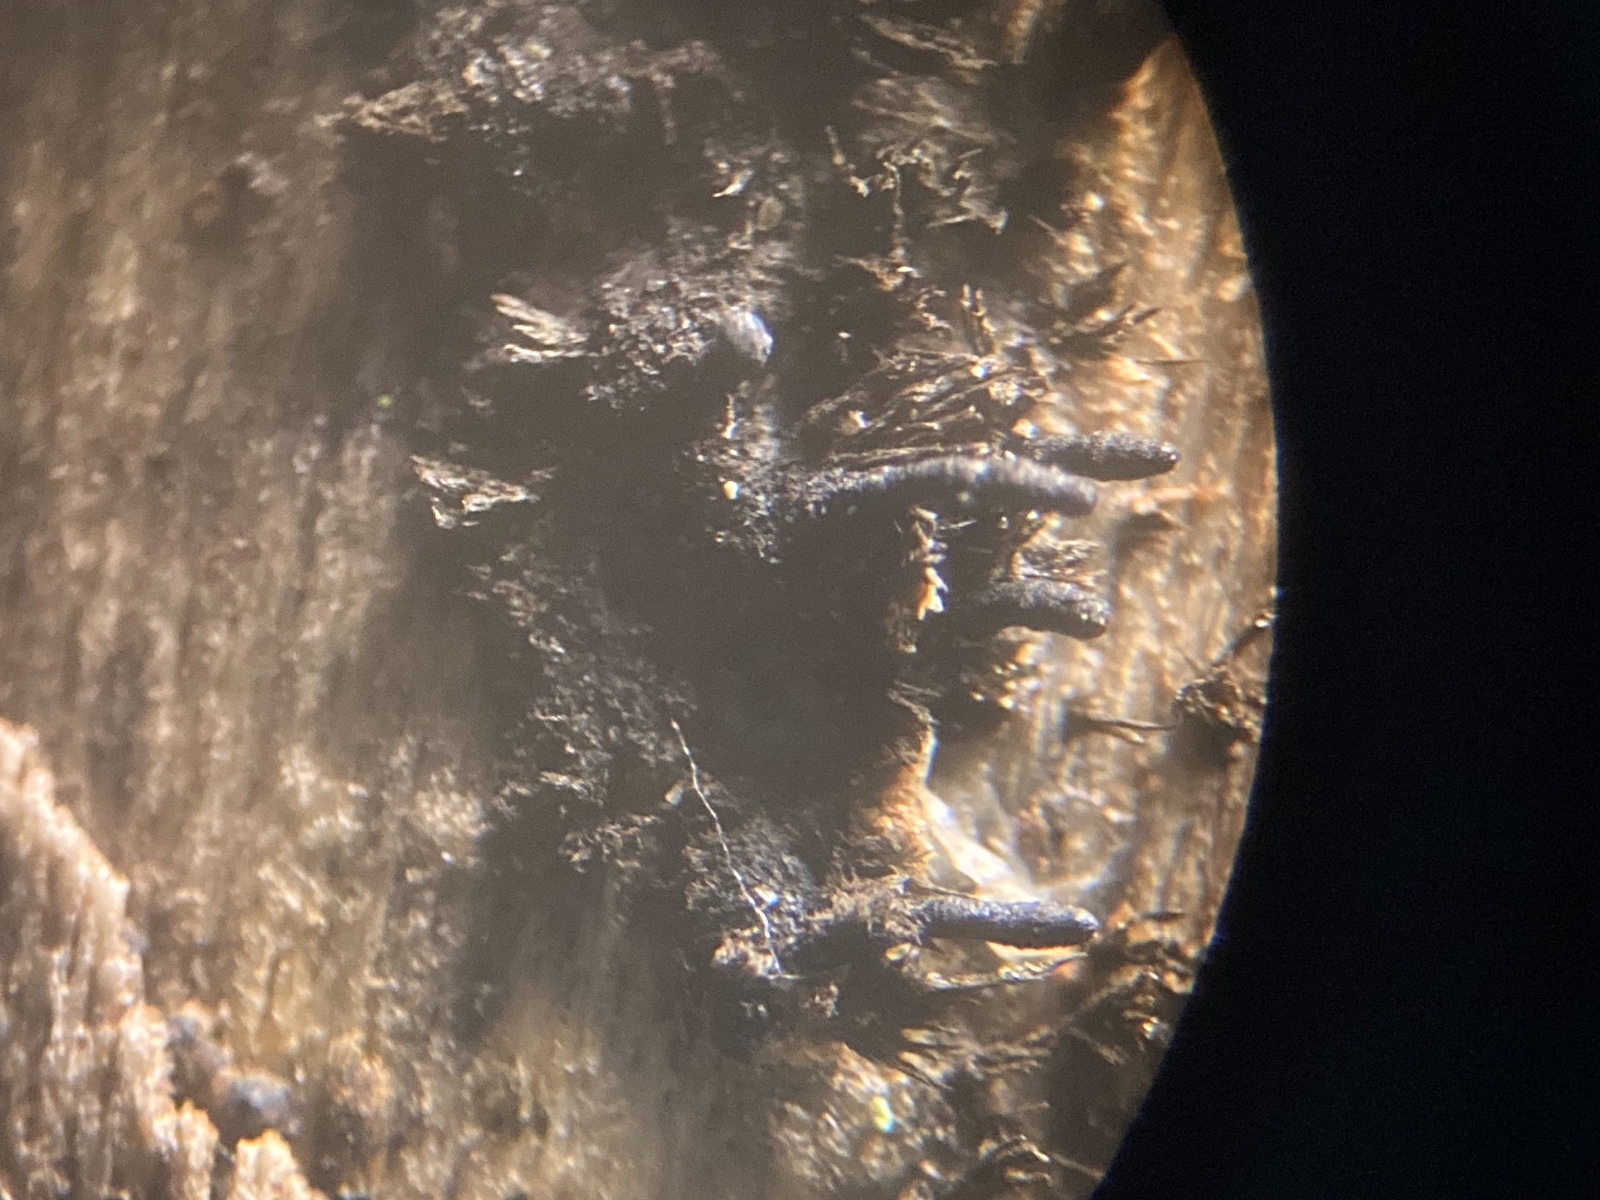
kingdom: Fungi
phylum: Ascomycota
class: Sordariomycetes
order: Xylariales
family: Diatrypaceae
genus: Peroneutypa
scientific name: Peroneutypa scoparia
